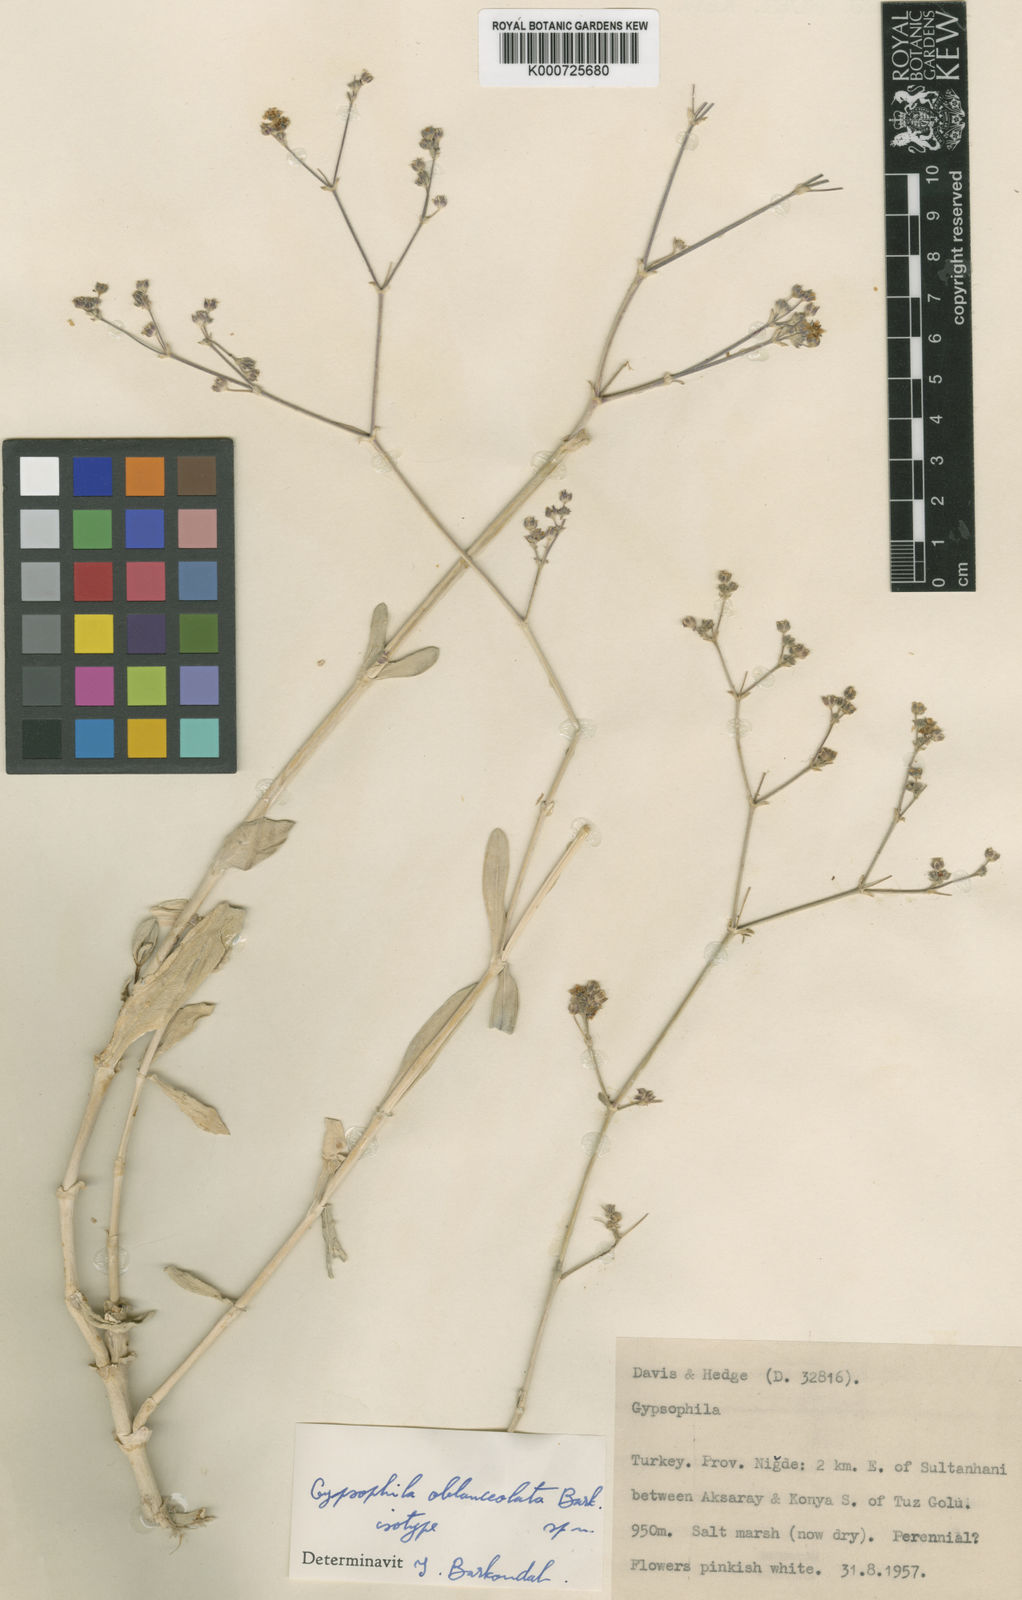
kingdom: Plantae
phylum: Tracheophyta
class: Magnoliopsida
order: Caryophyllales
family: Caryophyllaceae
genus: Gypsophila
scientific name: Gypsophila oblanceolata
